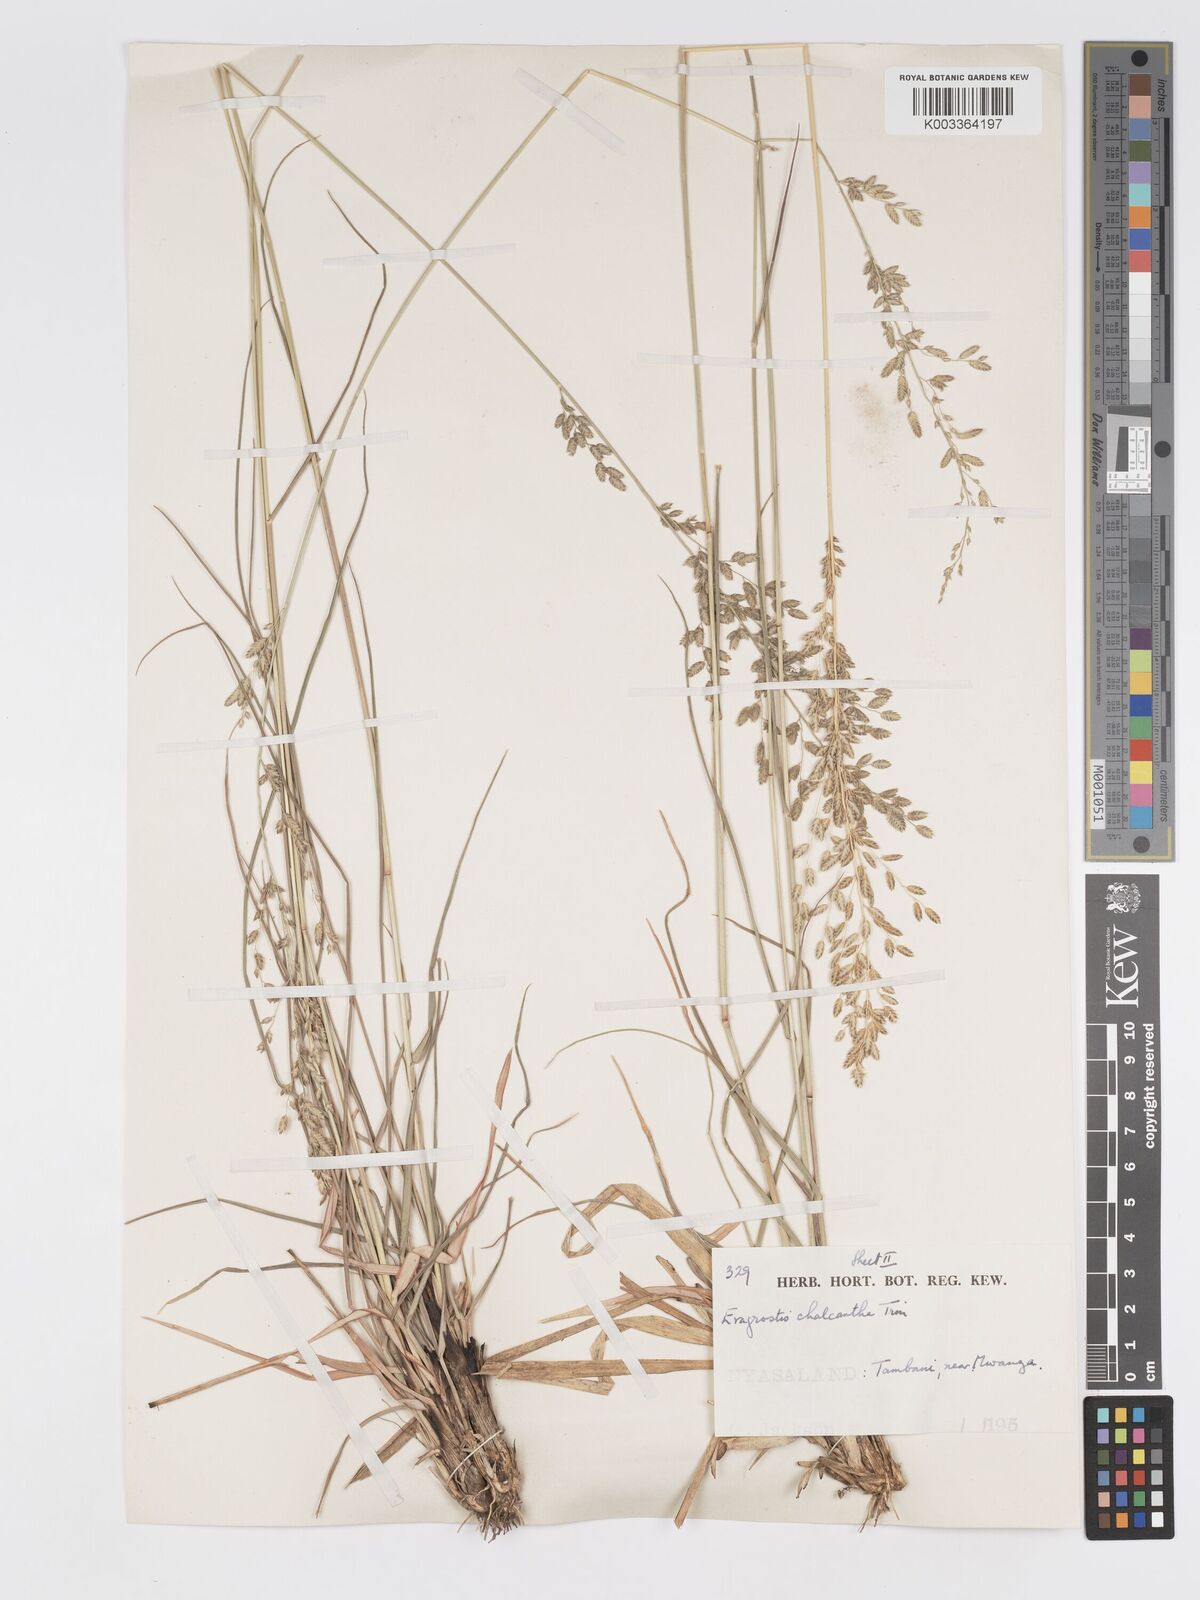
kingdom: Plantae
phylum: Tracheophyta
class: Liliopsida
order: Poales
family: Poaceae
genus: Eragrostis
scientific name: Eragrostis racemosa
